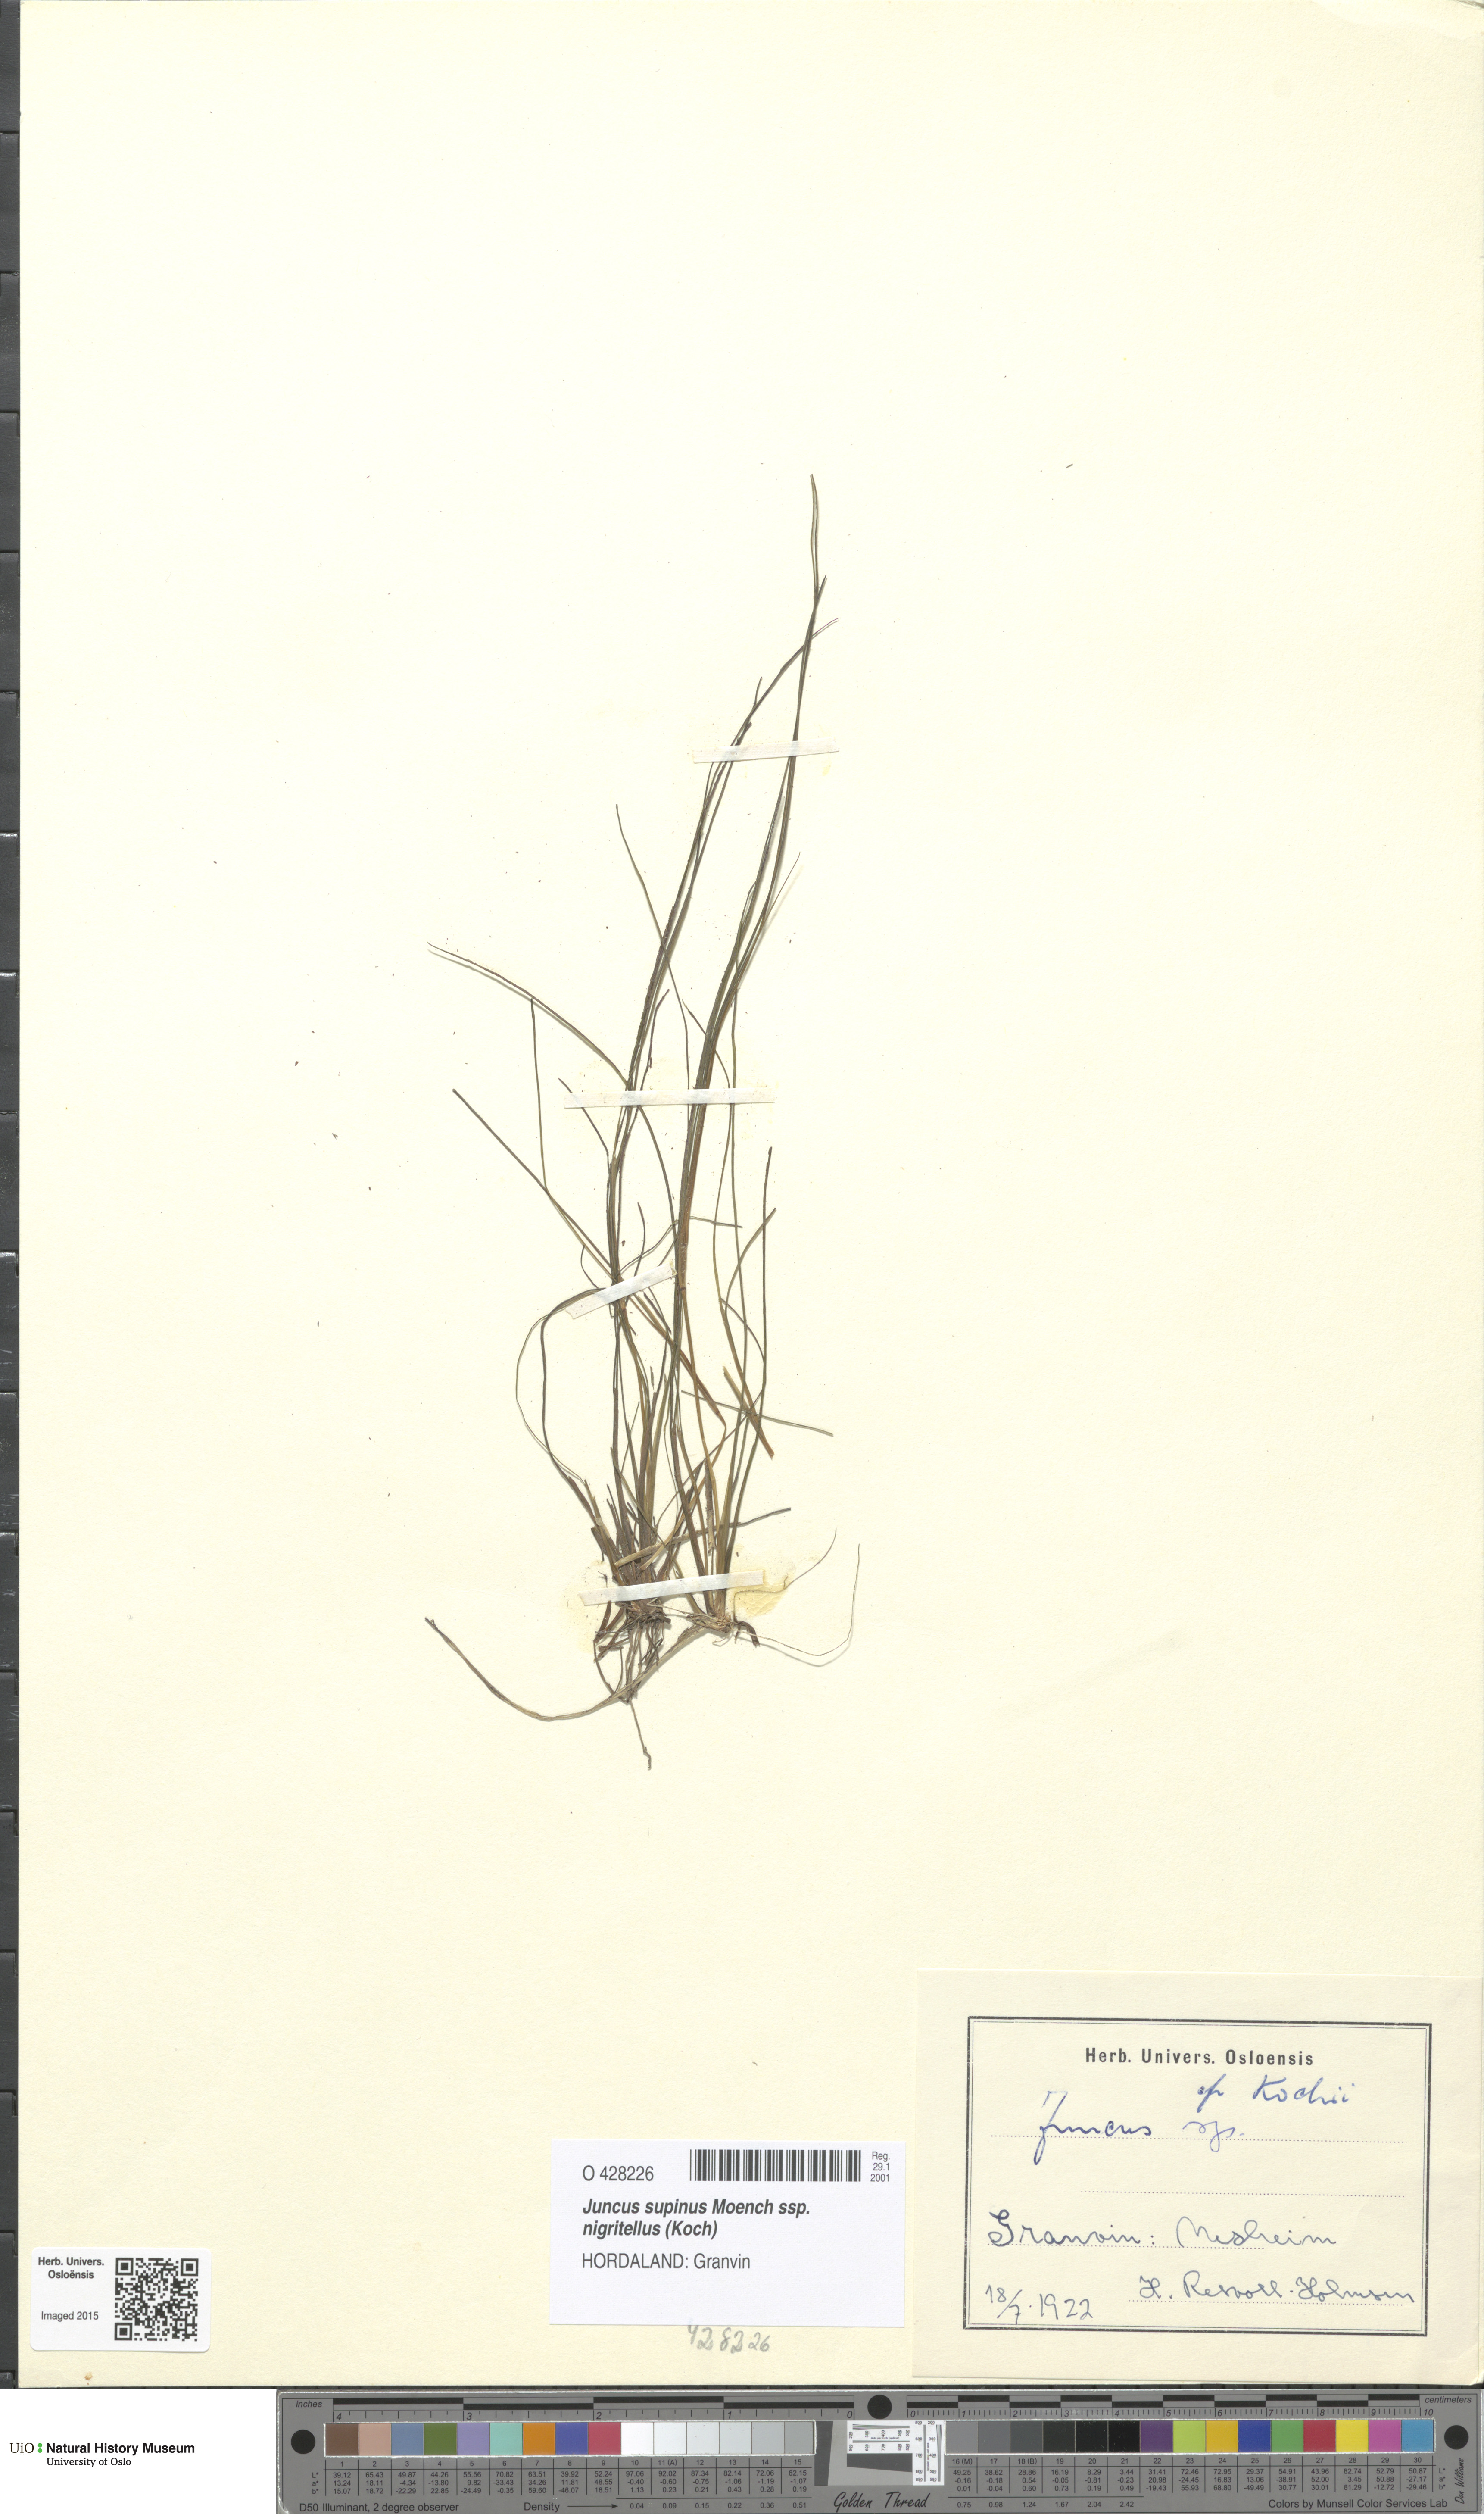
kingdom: Plantae
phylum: Tracheophyta
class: Liliopsida
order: Poales
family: Juncaceae
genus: Juncus
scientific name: Juncus bulbosus
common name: Bulbous rush
